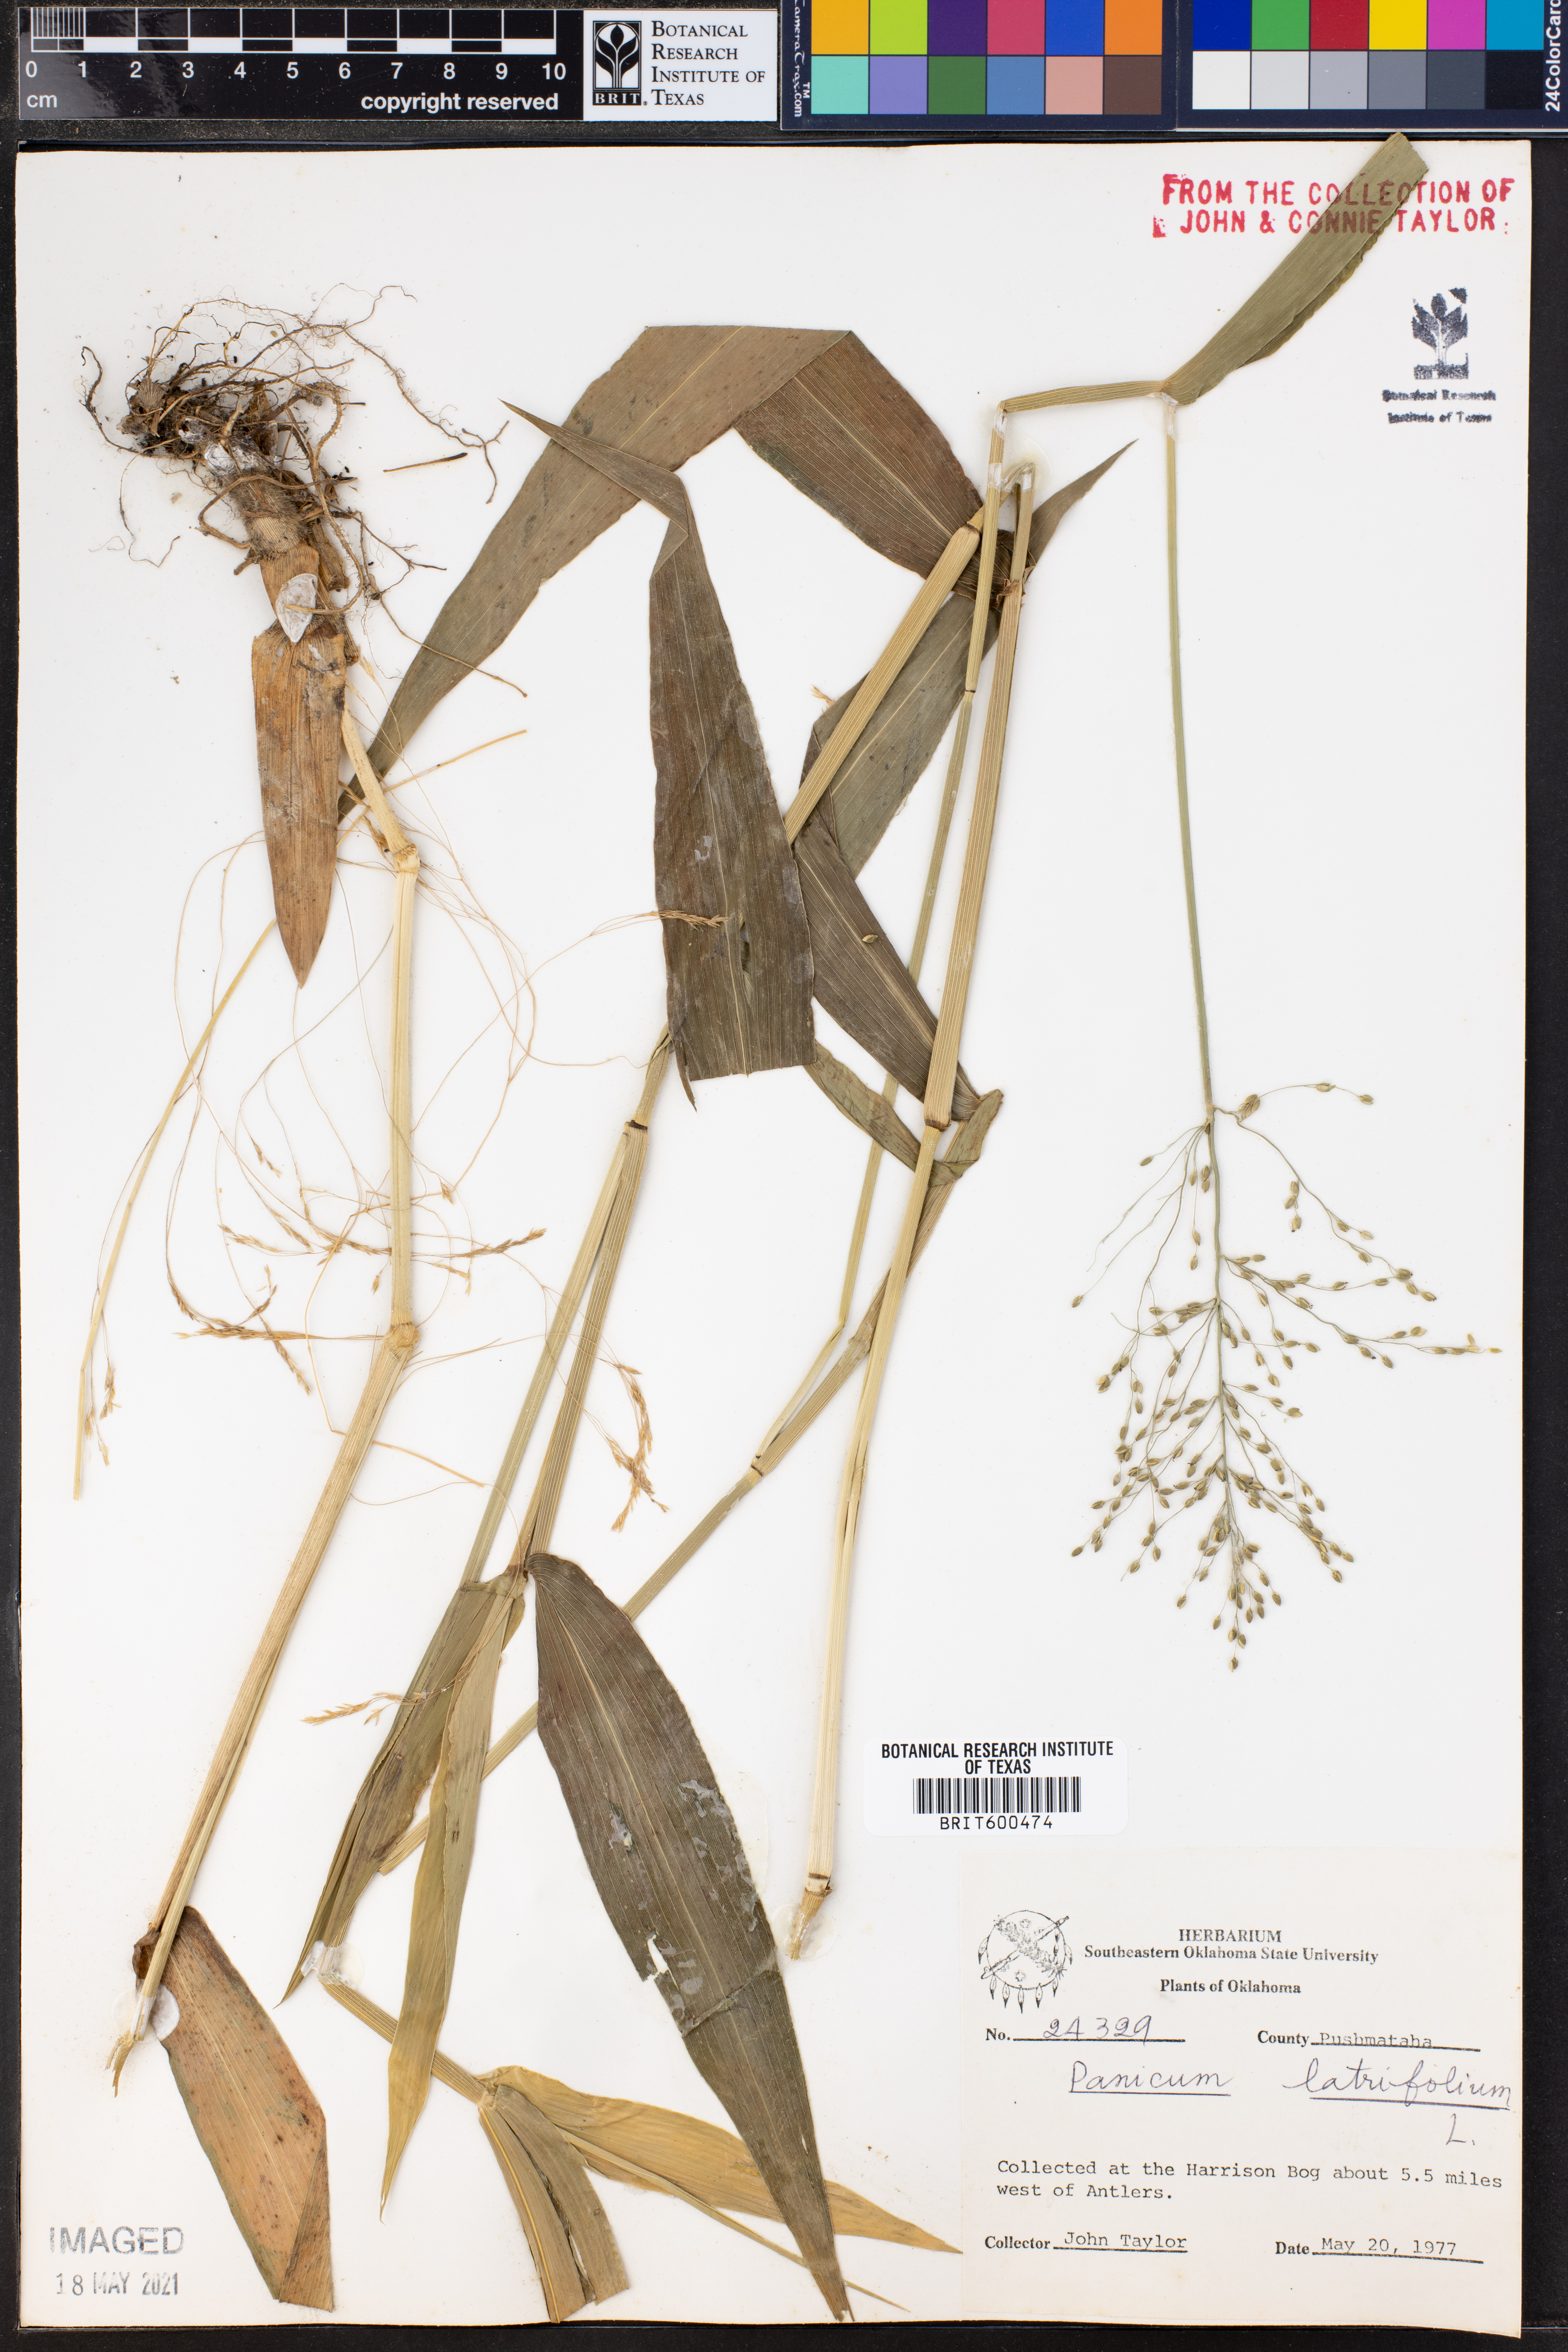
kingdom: Plantae
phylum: Tracheophyta
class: Liliopsida
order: Poales
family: Poaceae
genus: Dichanthelium
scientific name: Dichanthelium latifolium
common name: Broad-leaved panicgrass
